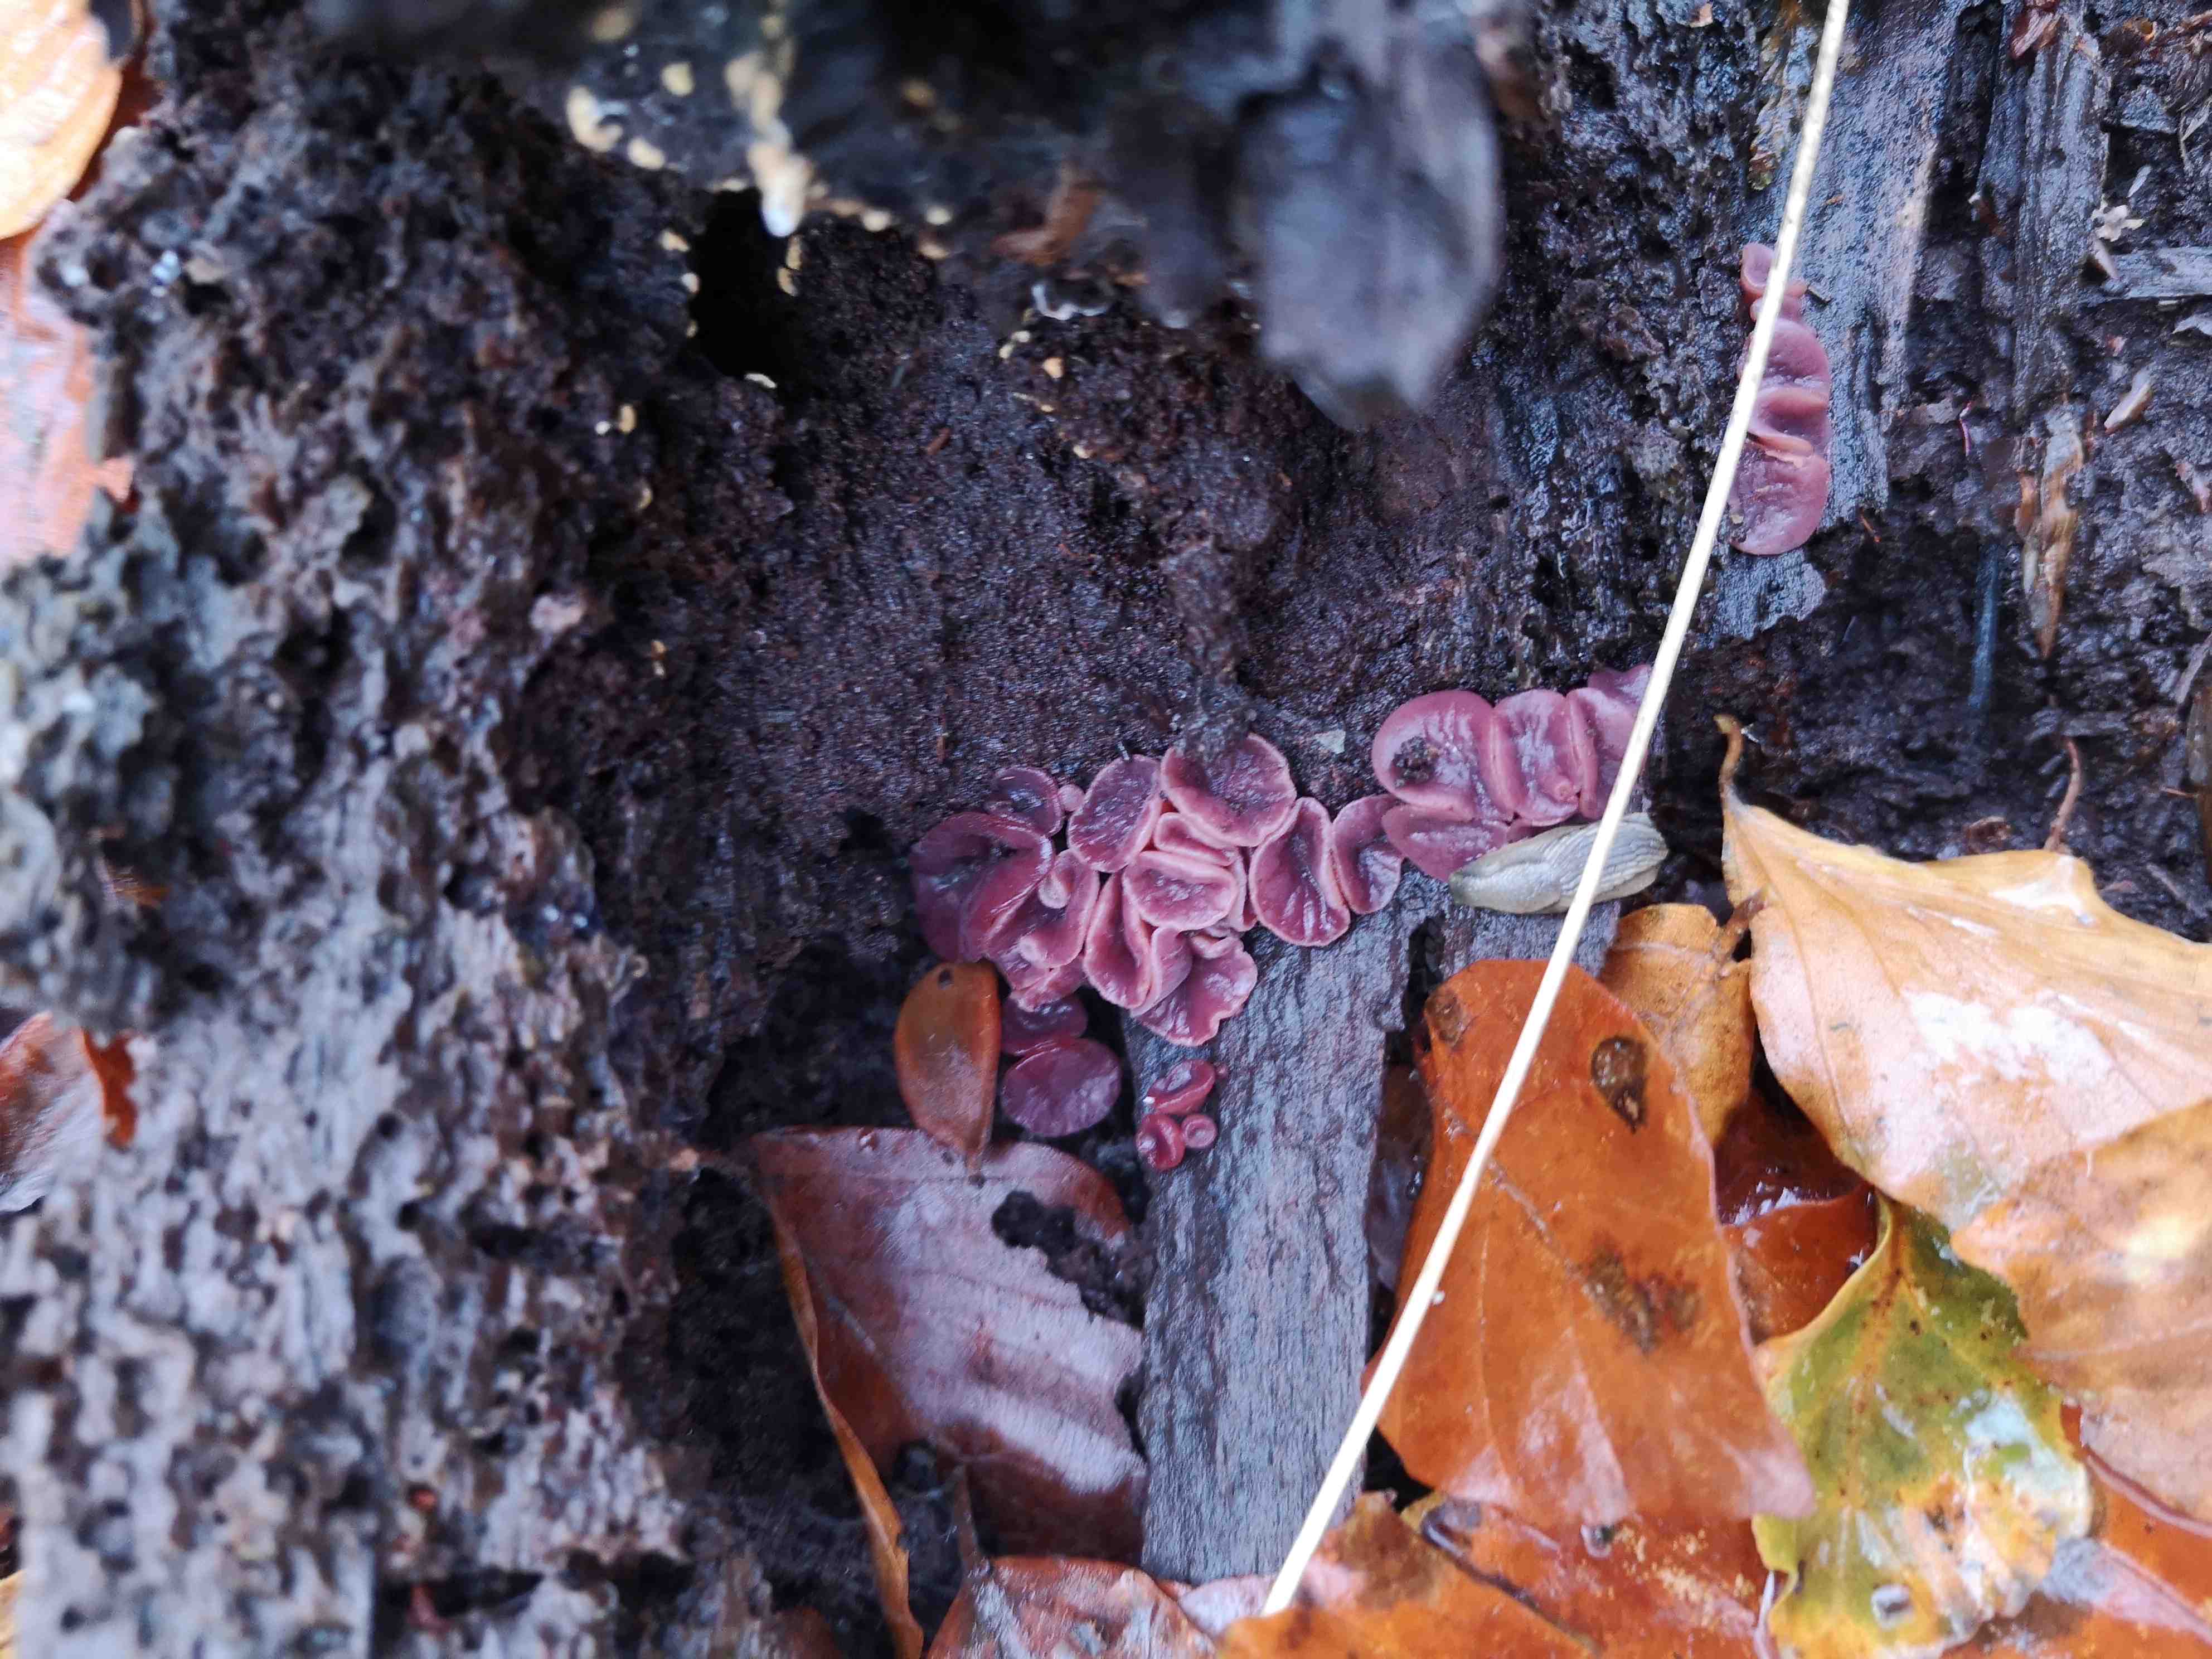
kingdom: Fungi
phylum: Ascomycota
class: Leotiomycetes
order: Helotiales
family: Gelatinodiscaceae
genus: Ascocoryne
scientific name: Ascocoryne cylichnium
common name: stor sejskive
